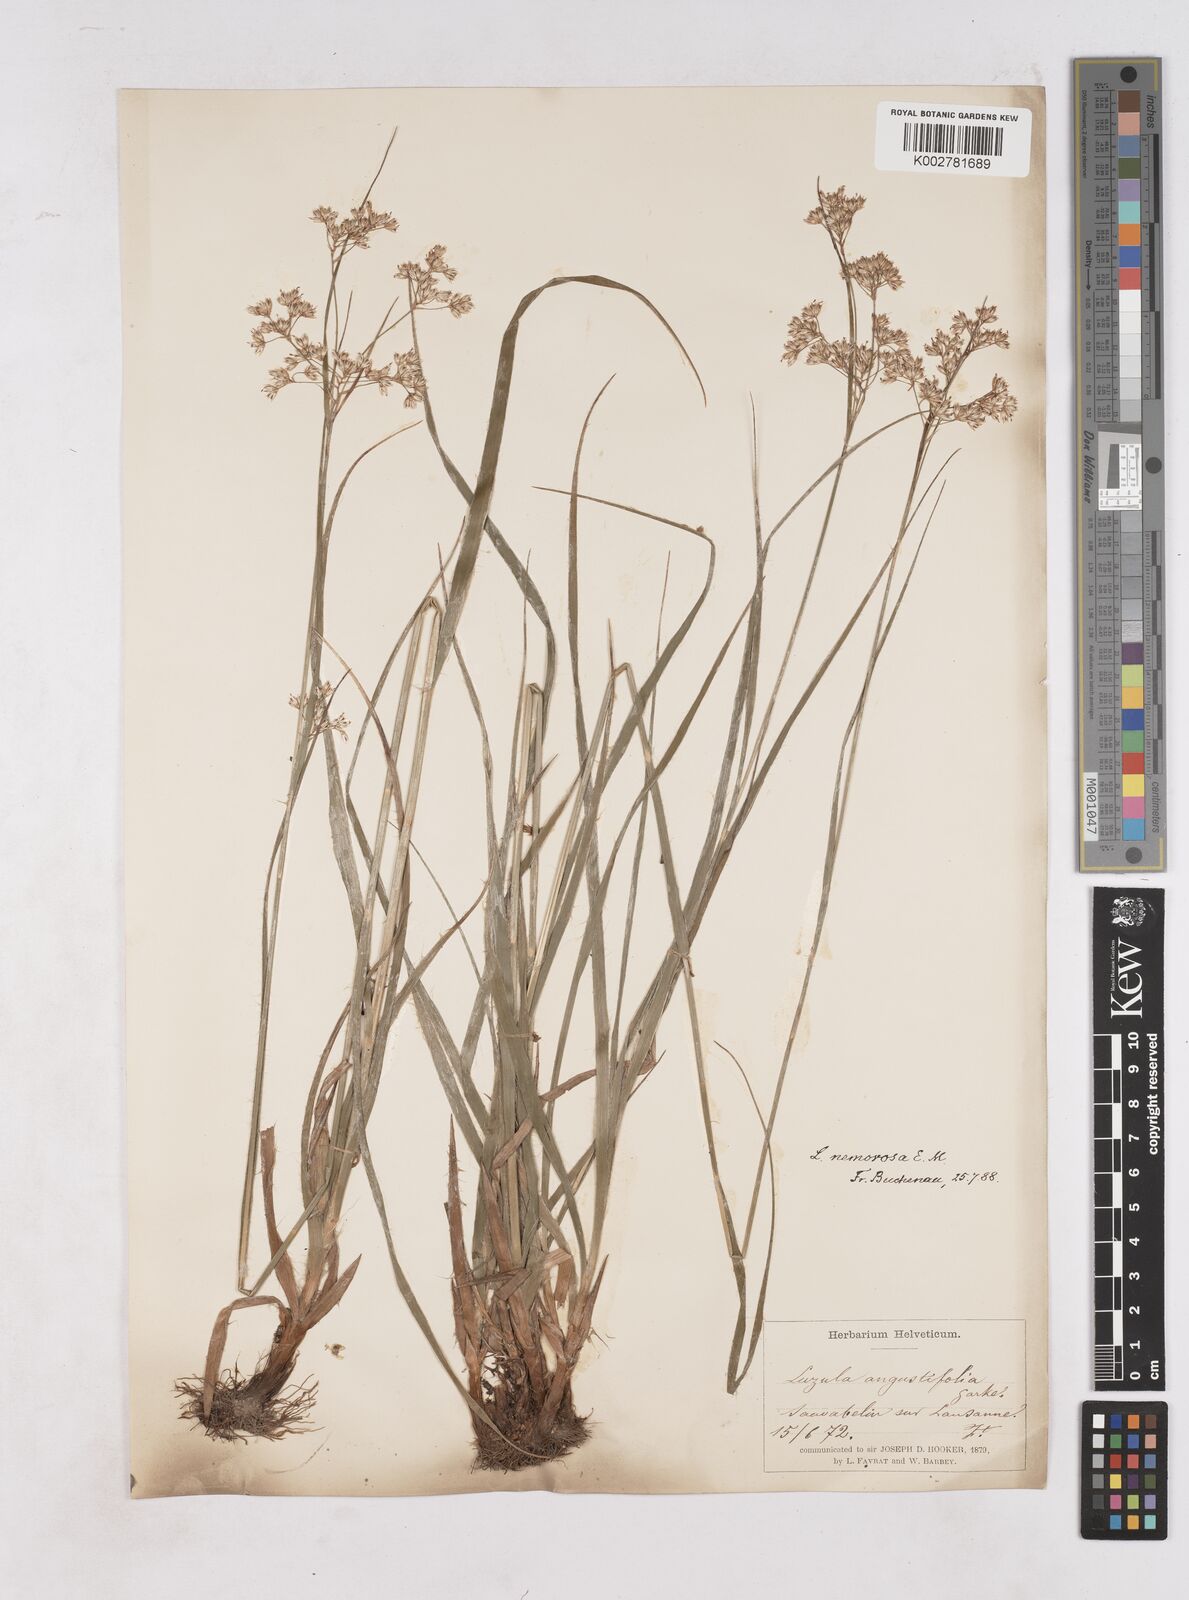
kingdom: Plantae
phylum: Tracheophyta
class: Liliopsida
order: Poales
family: Juncaceae
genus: Luzula
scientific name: Luzula luzuloides
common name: White wood-rush
